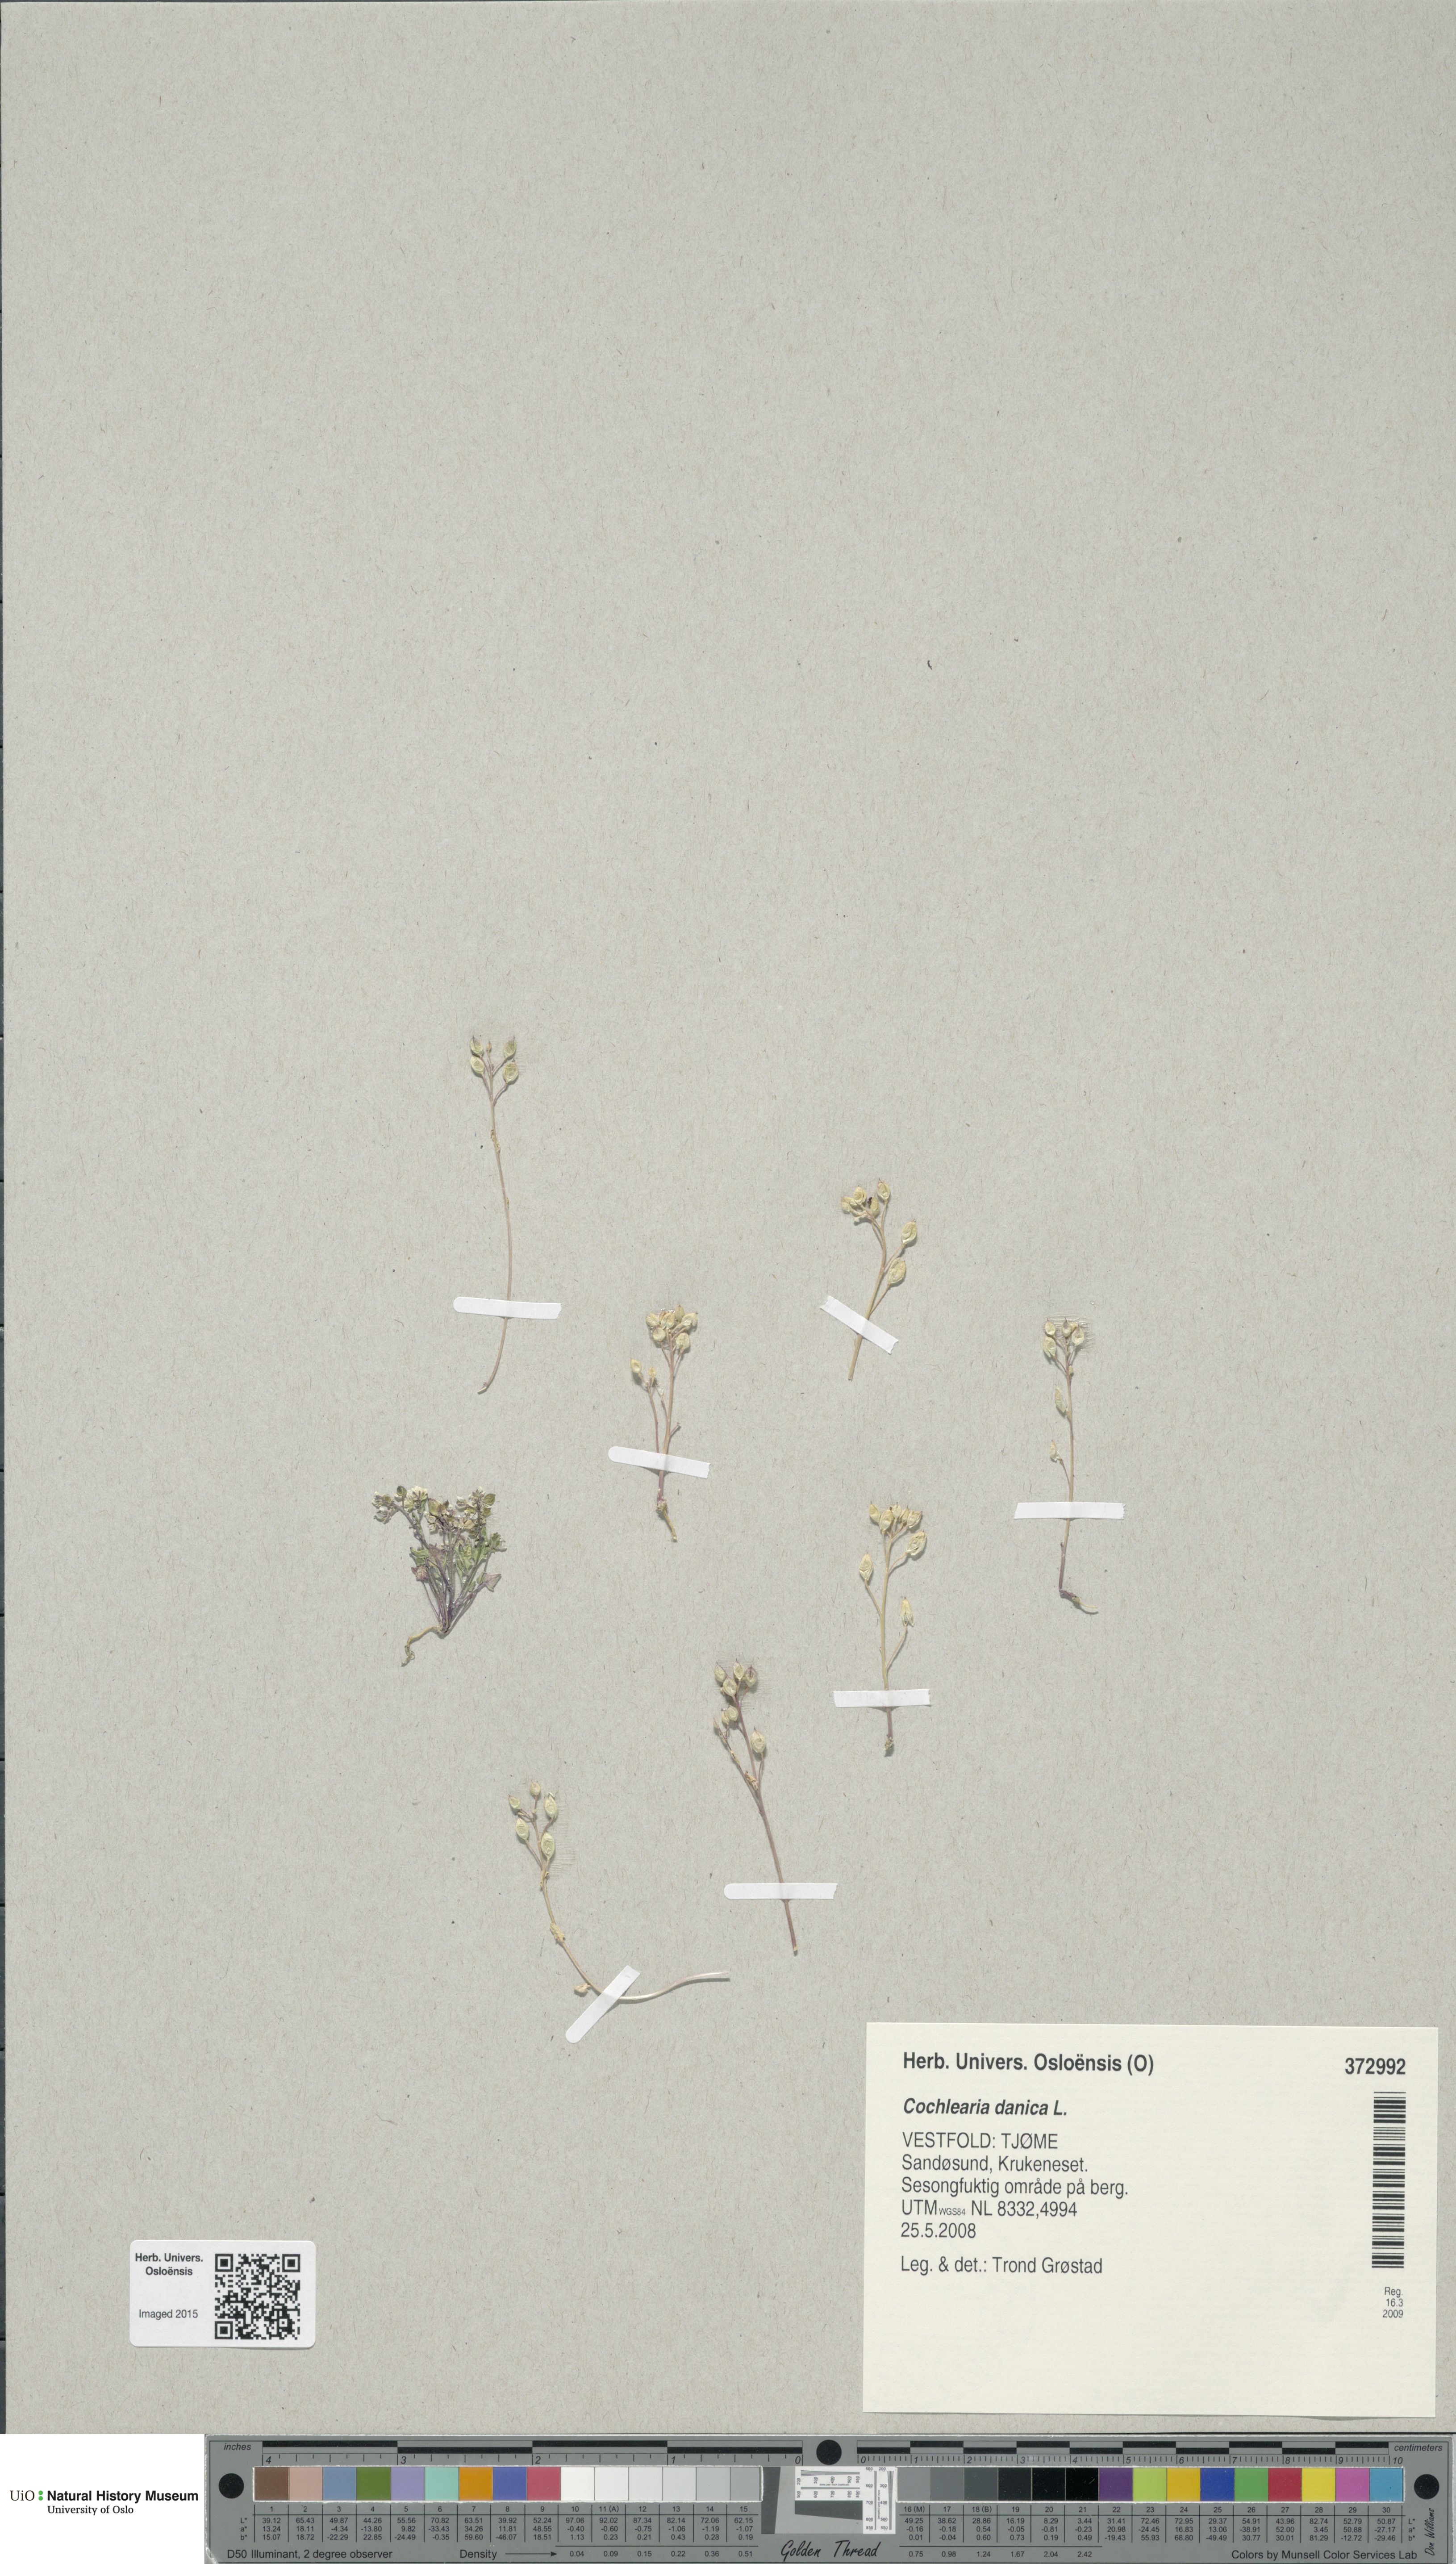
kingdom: Plantae
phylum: Tracheophyta
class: Magnoliopsida
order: Brassicales
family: Brassicaceae
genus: Cochlearia
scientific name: Cochlearia danica
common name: Early scurvygrass
